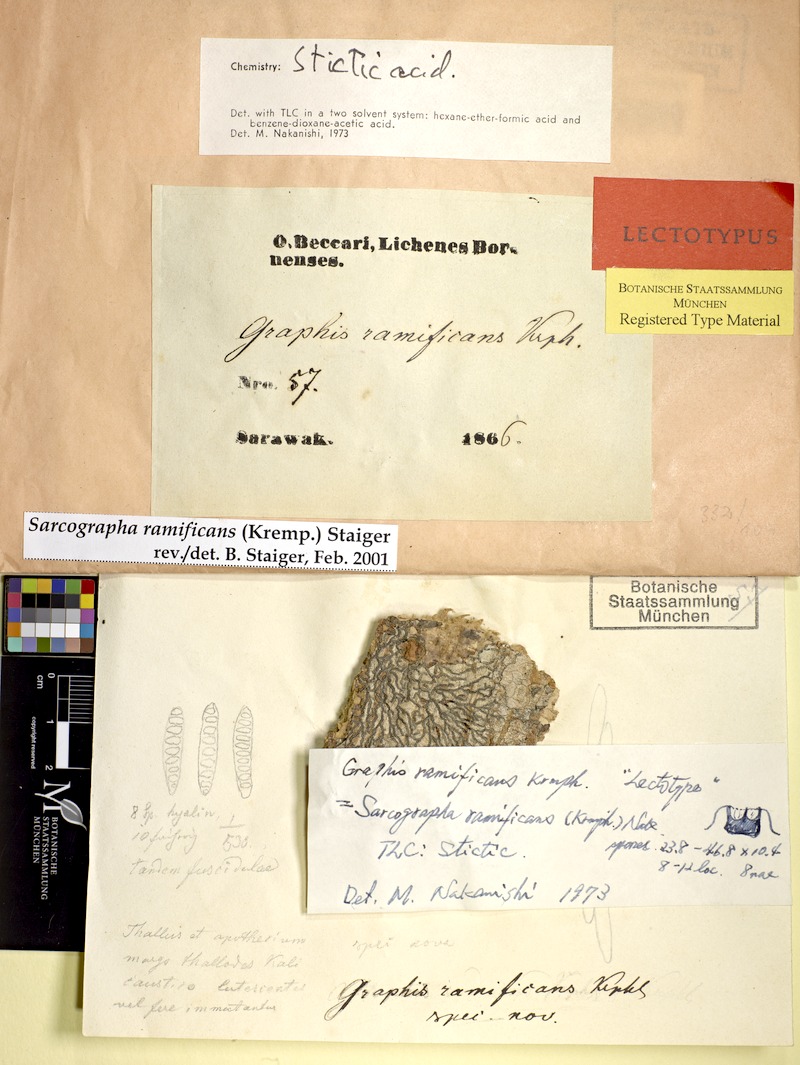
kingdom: Fungi
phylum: Ascomycota
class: Lecanoromycetes
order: Ostropales
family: Graphidaceae
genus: Sarcographa
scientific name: Sarcographa ramificans
